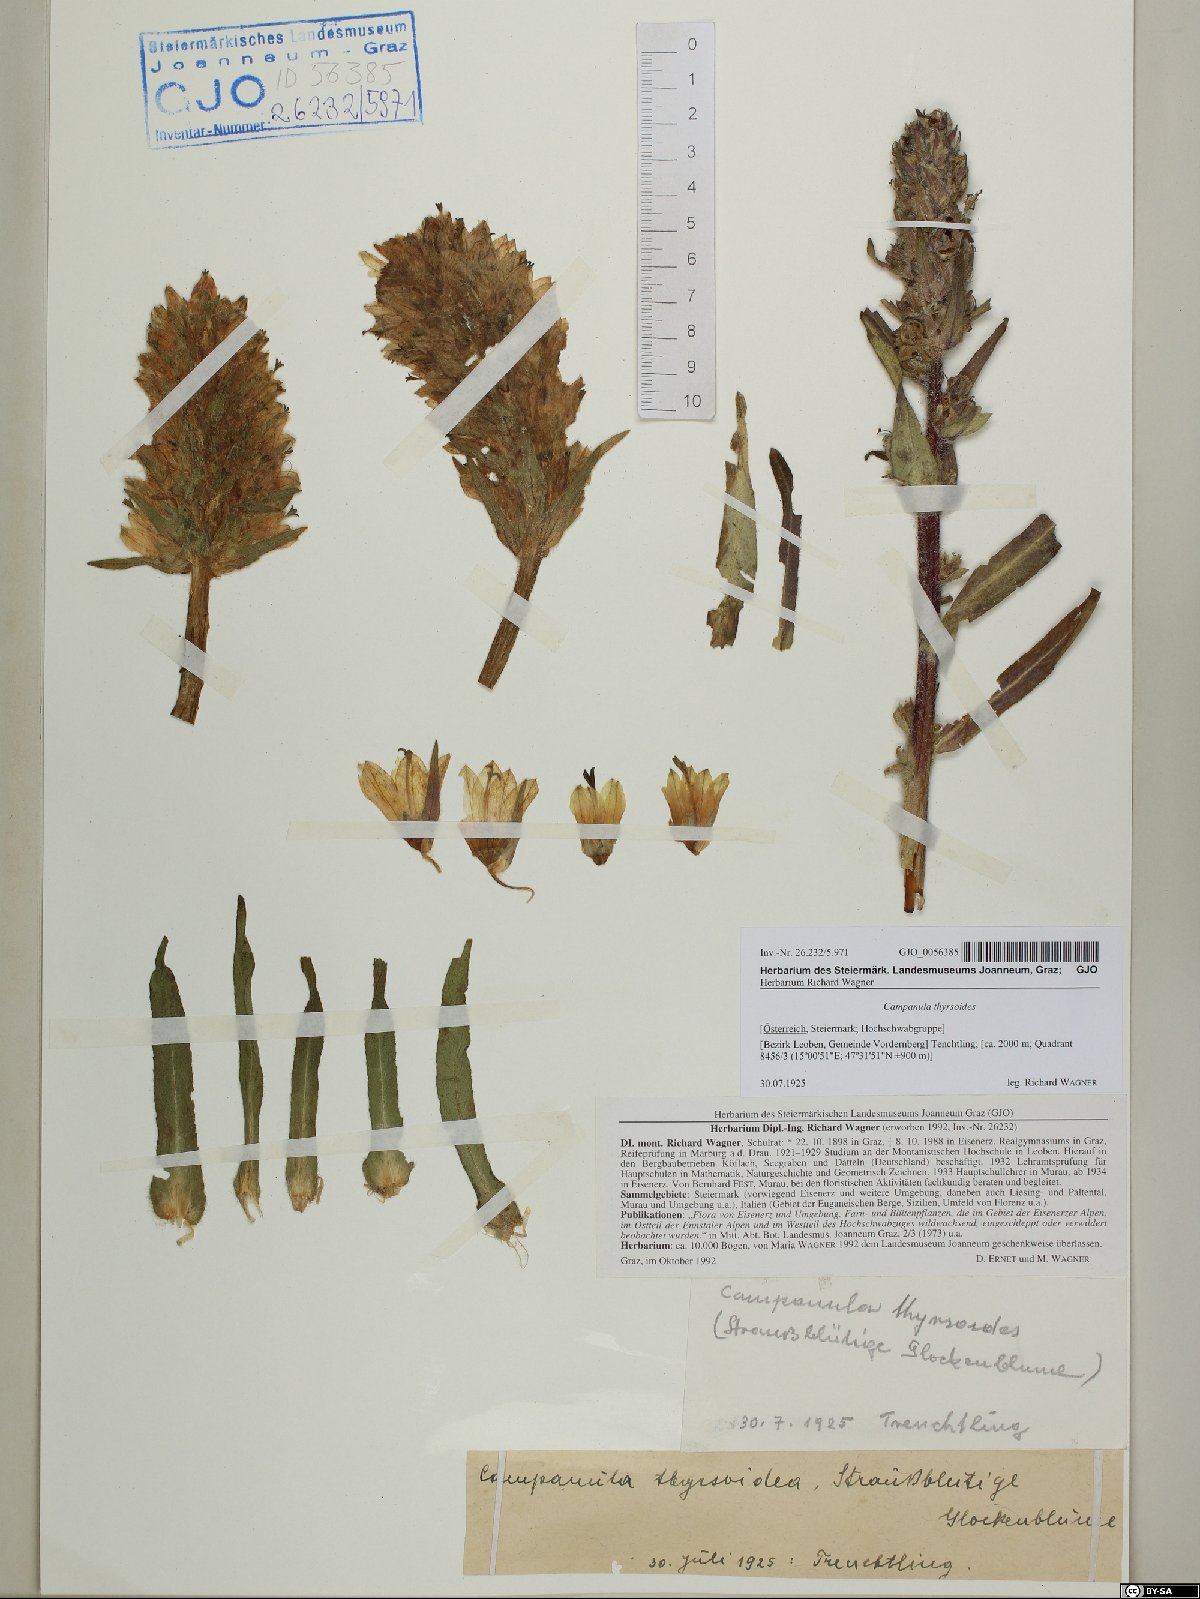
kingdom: Plantae
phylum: Tracheophyta
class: Magnoliopsida
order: Asterales
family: Campanulaceae
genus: Campanula
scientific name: Campanula thyrsoides
